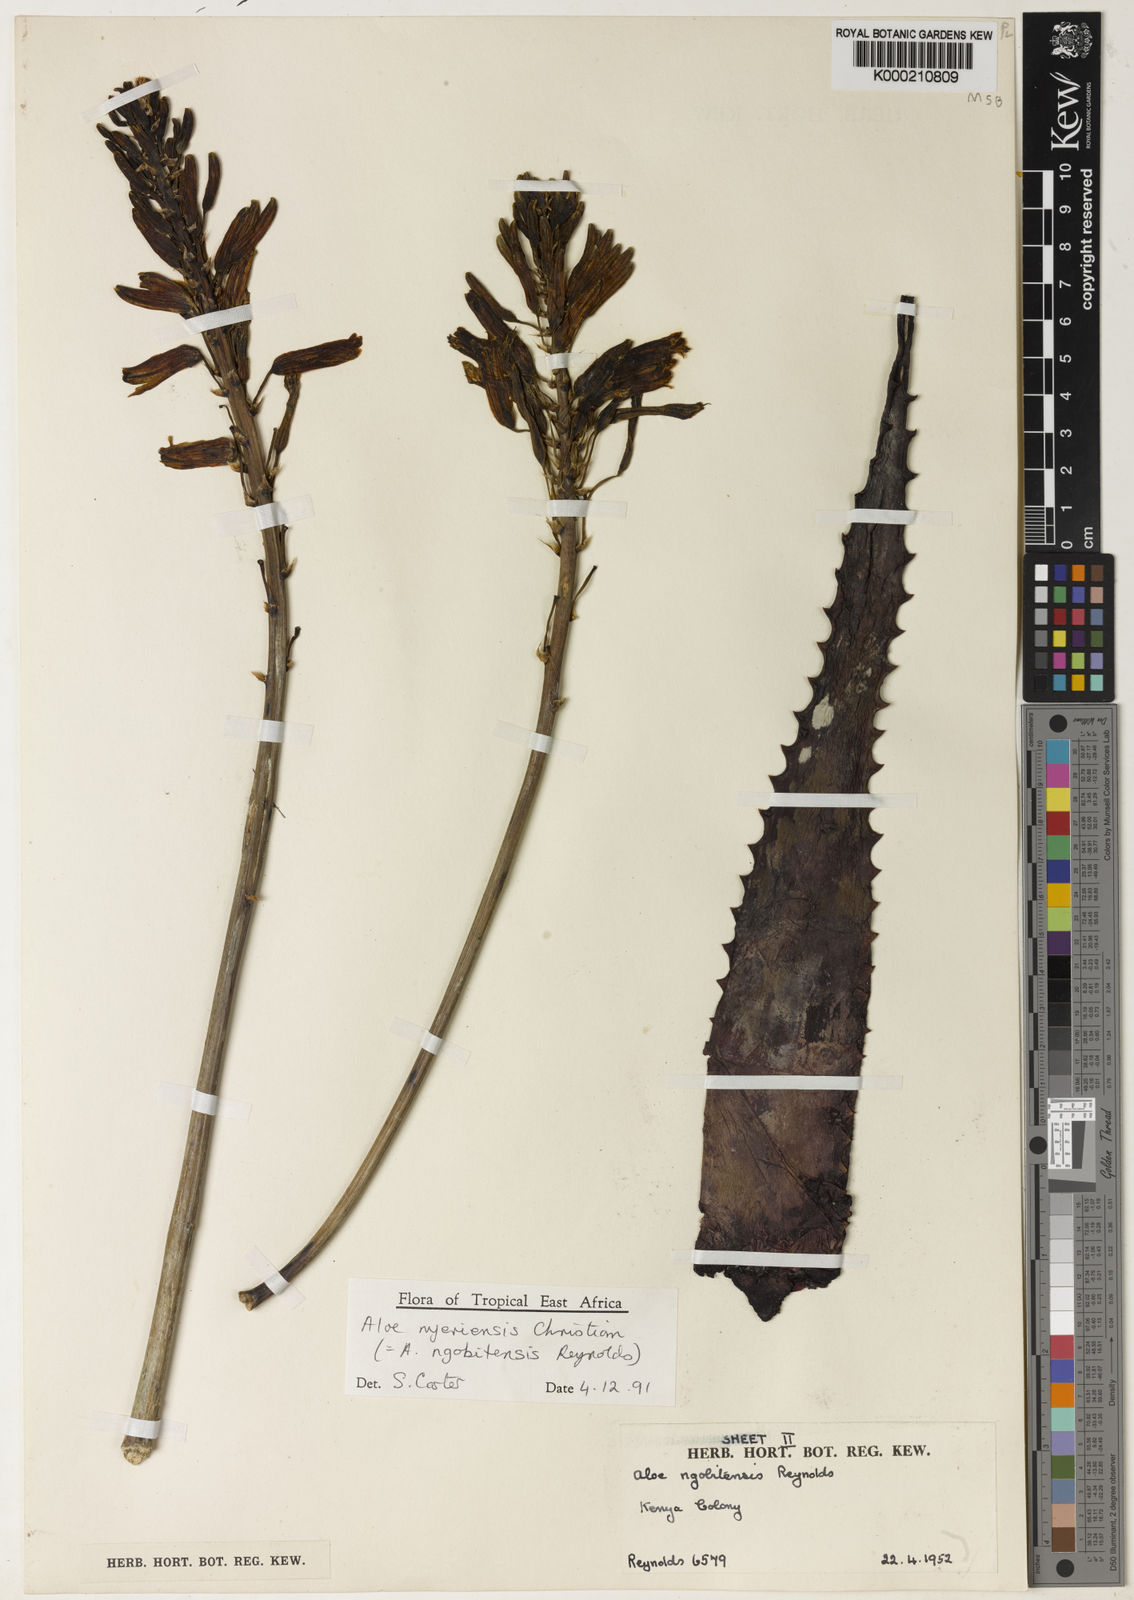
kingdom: Plantae
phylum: Tracheophyta
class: Liliopsida
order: Asparagales
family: Asphodelaceae
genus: Aloe
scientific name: Aloe nyeriensis
